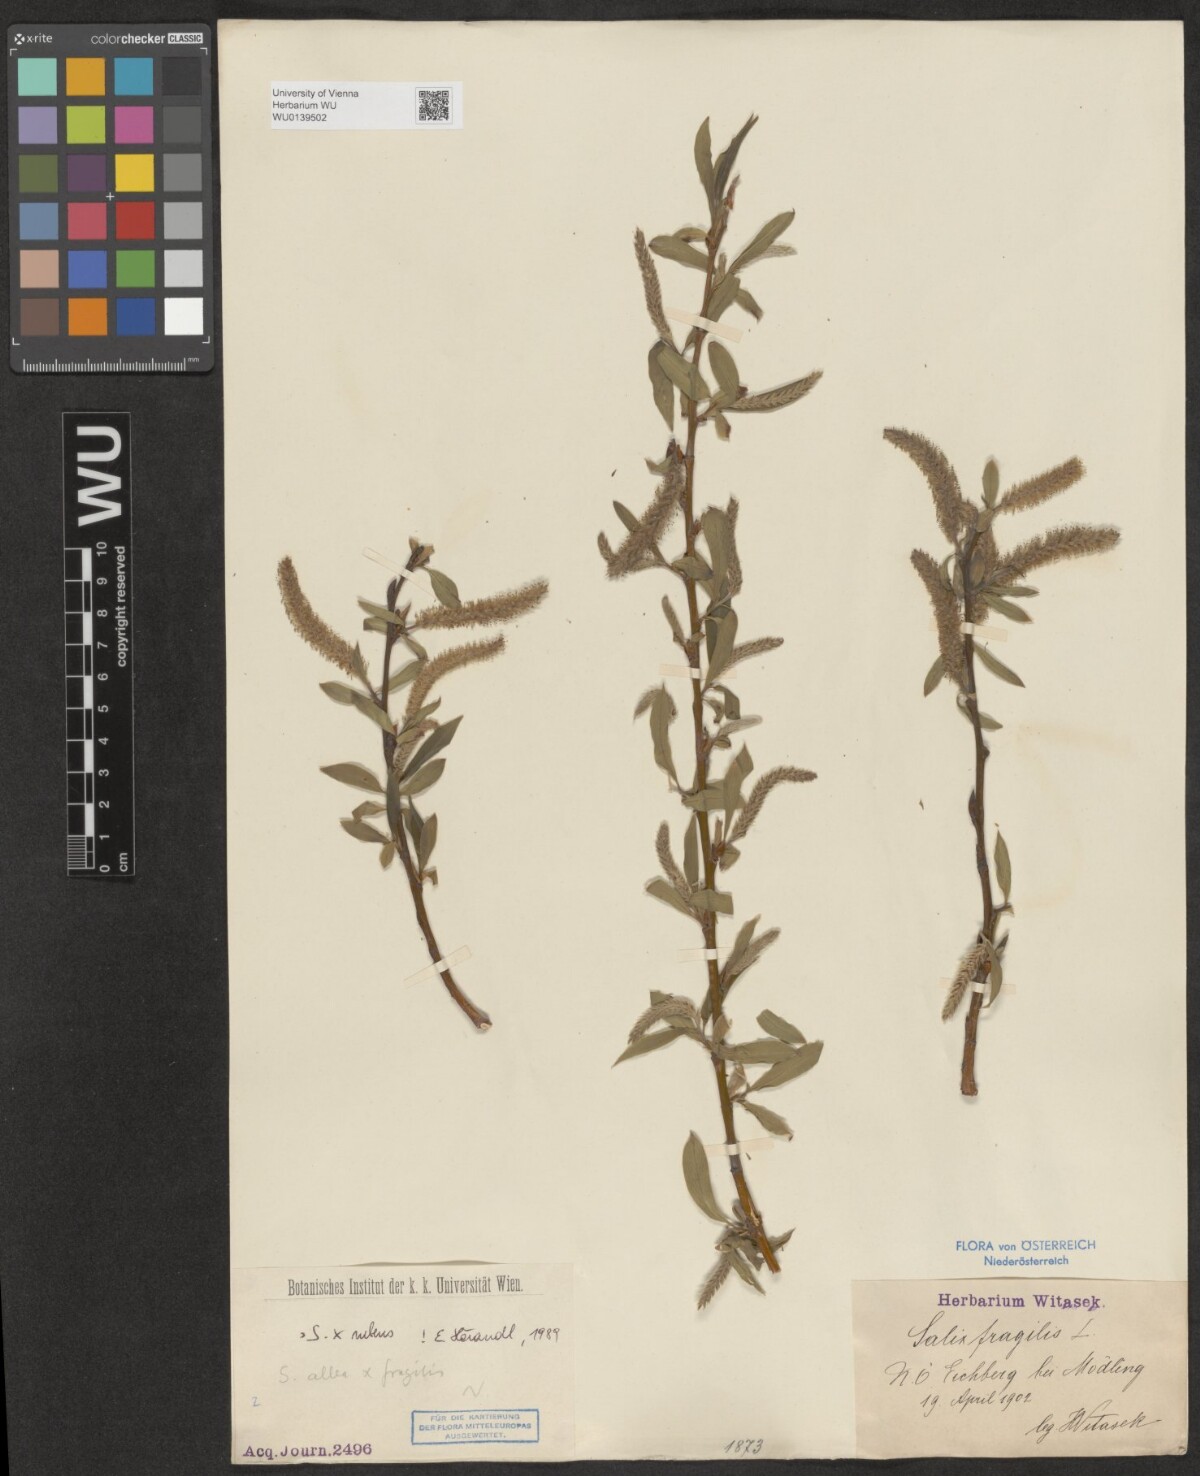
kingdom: Plantae
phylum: Tracheophyta
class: Magnoliopsida
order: Malpighiales
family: Salicaceae
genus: Salix
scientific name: Salix rubens
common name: Hybrid crack willow
